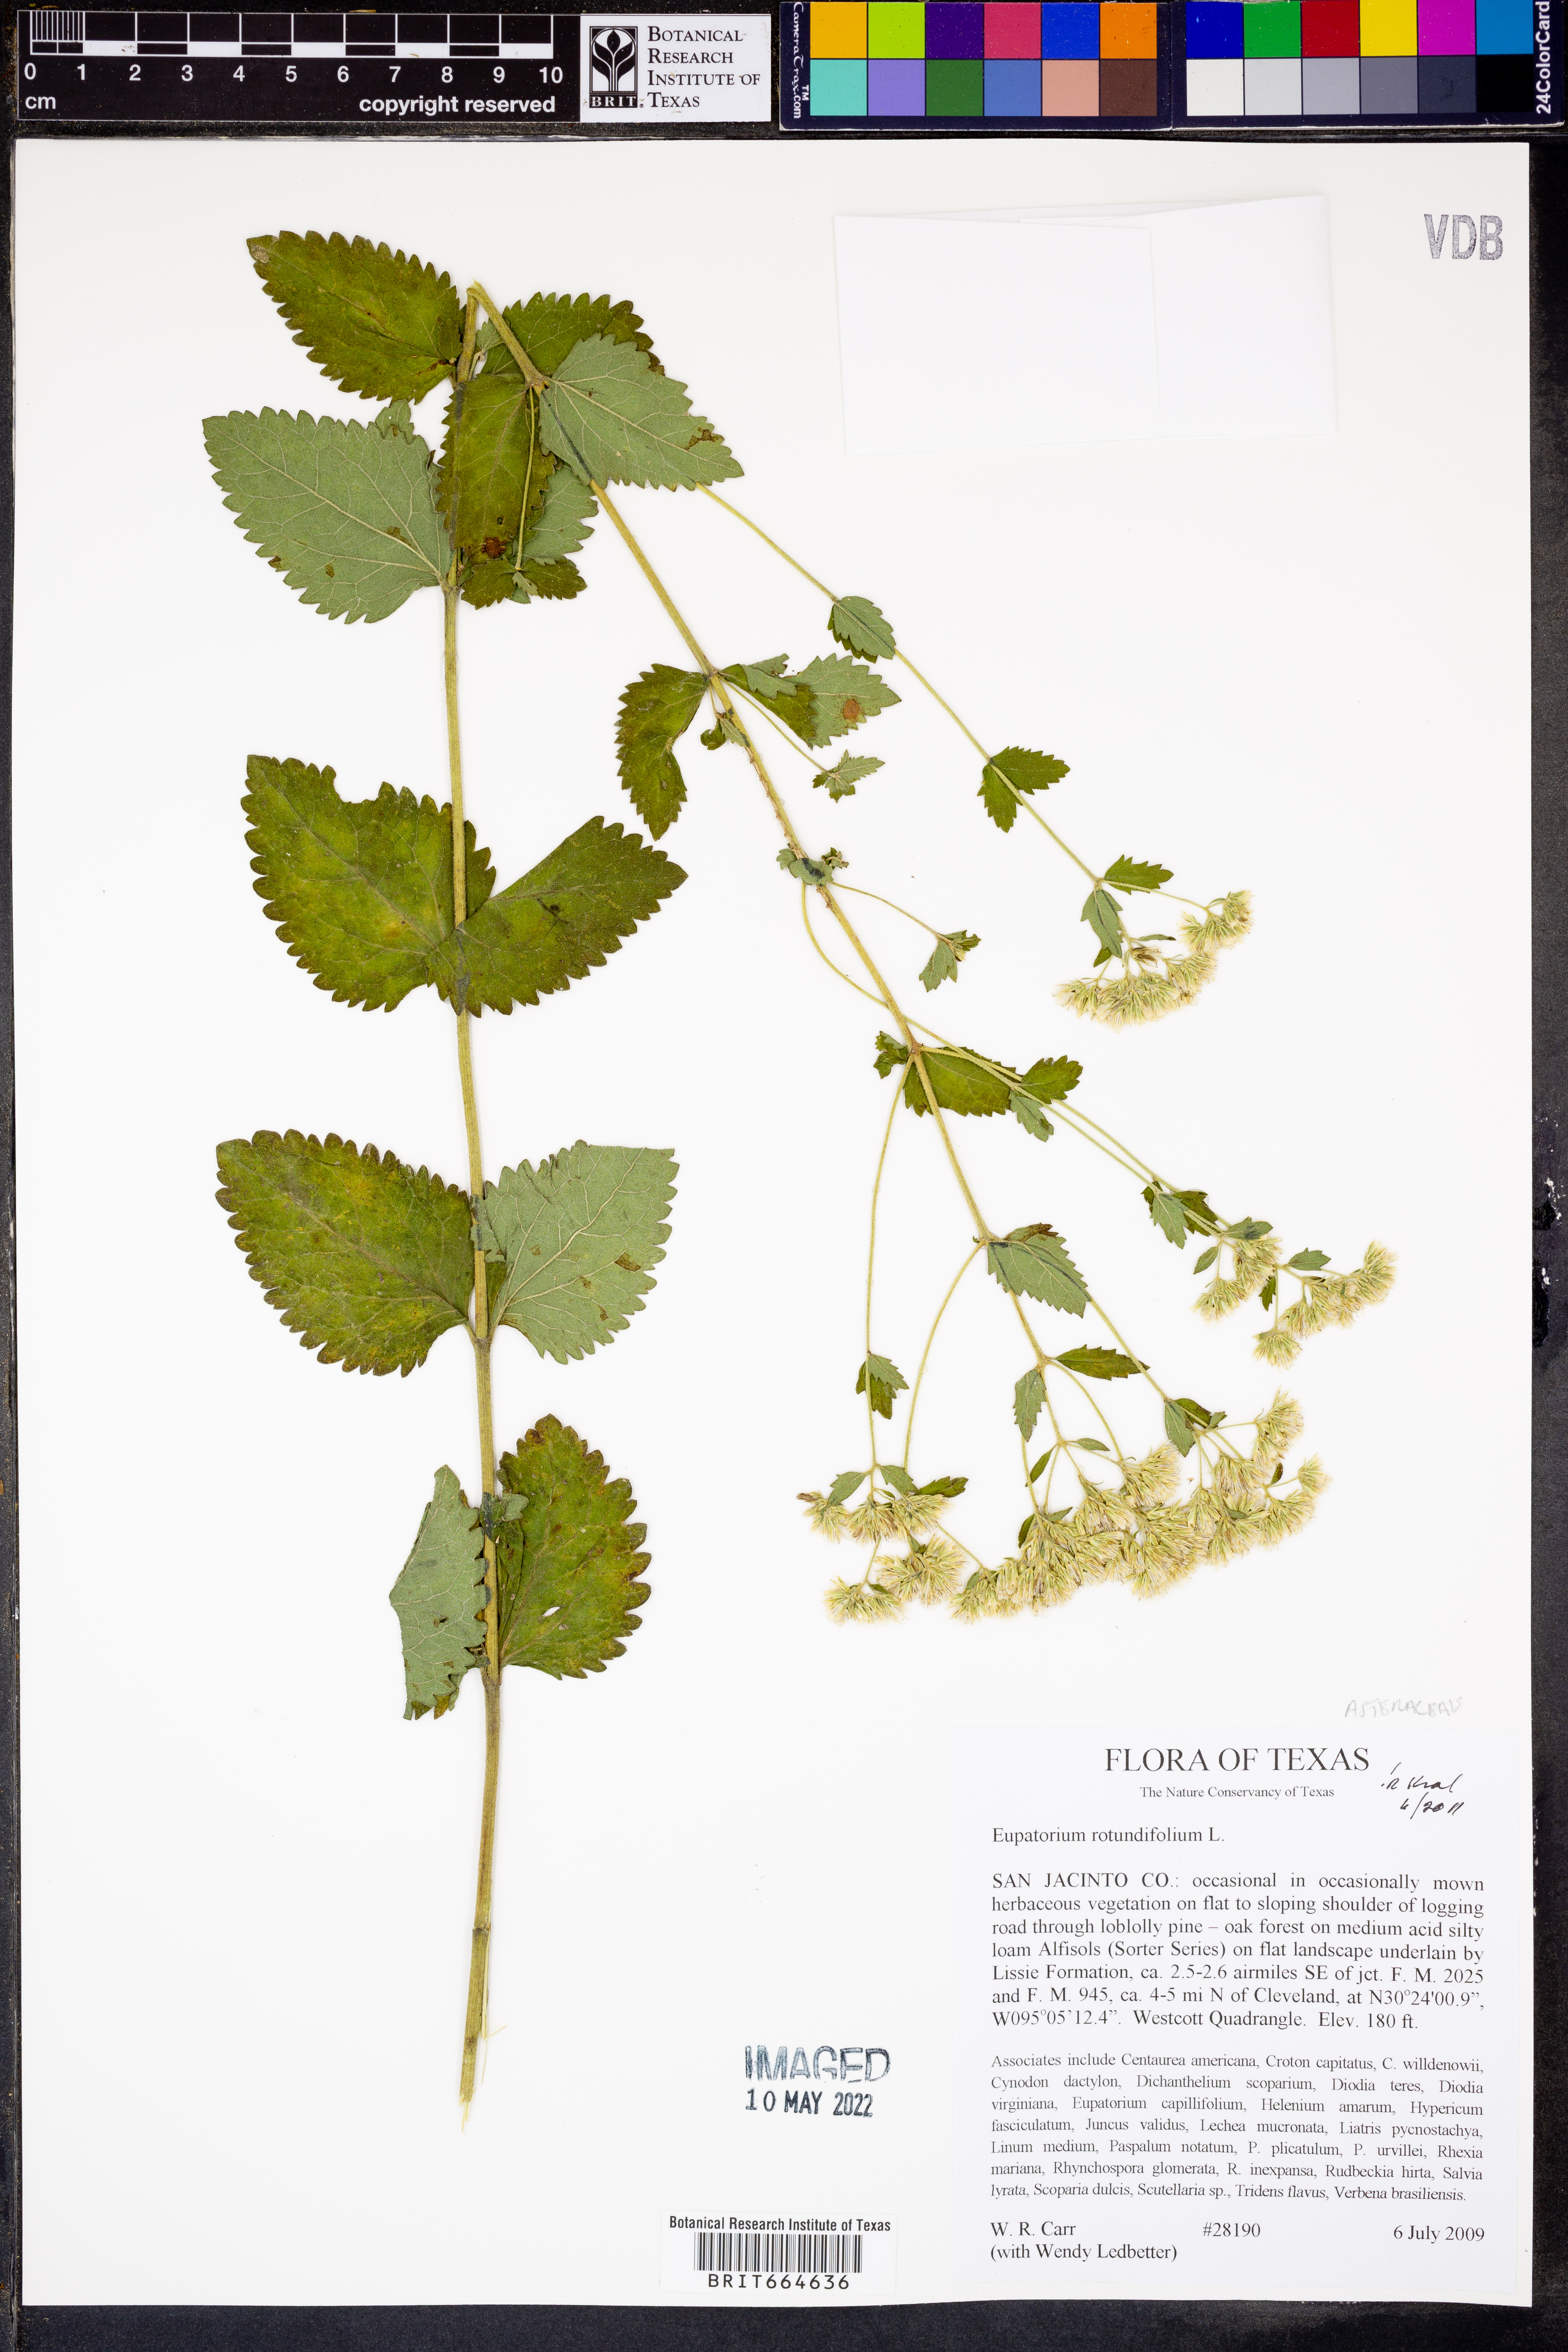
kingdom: Plantae
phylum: Tracheophyta
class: Magnoliopsida
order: Asterales
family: Asteraceae
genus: Eupatorium
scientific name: Eupatorium rotundifolium
